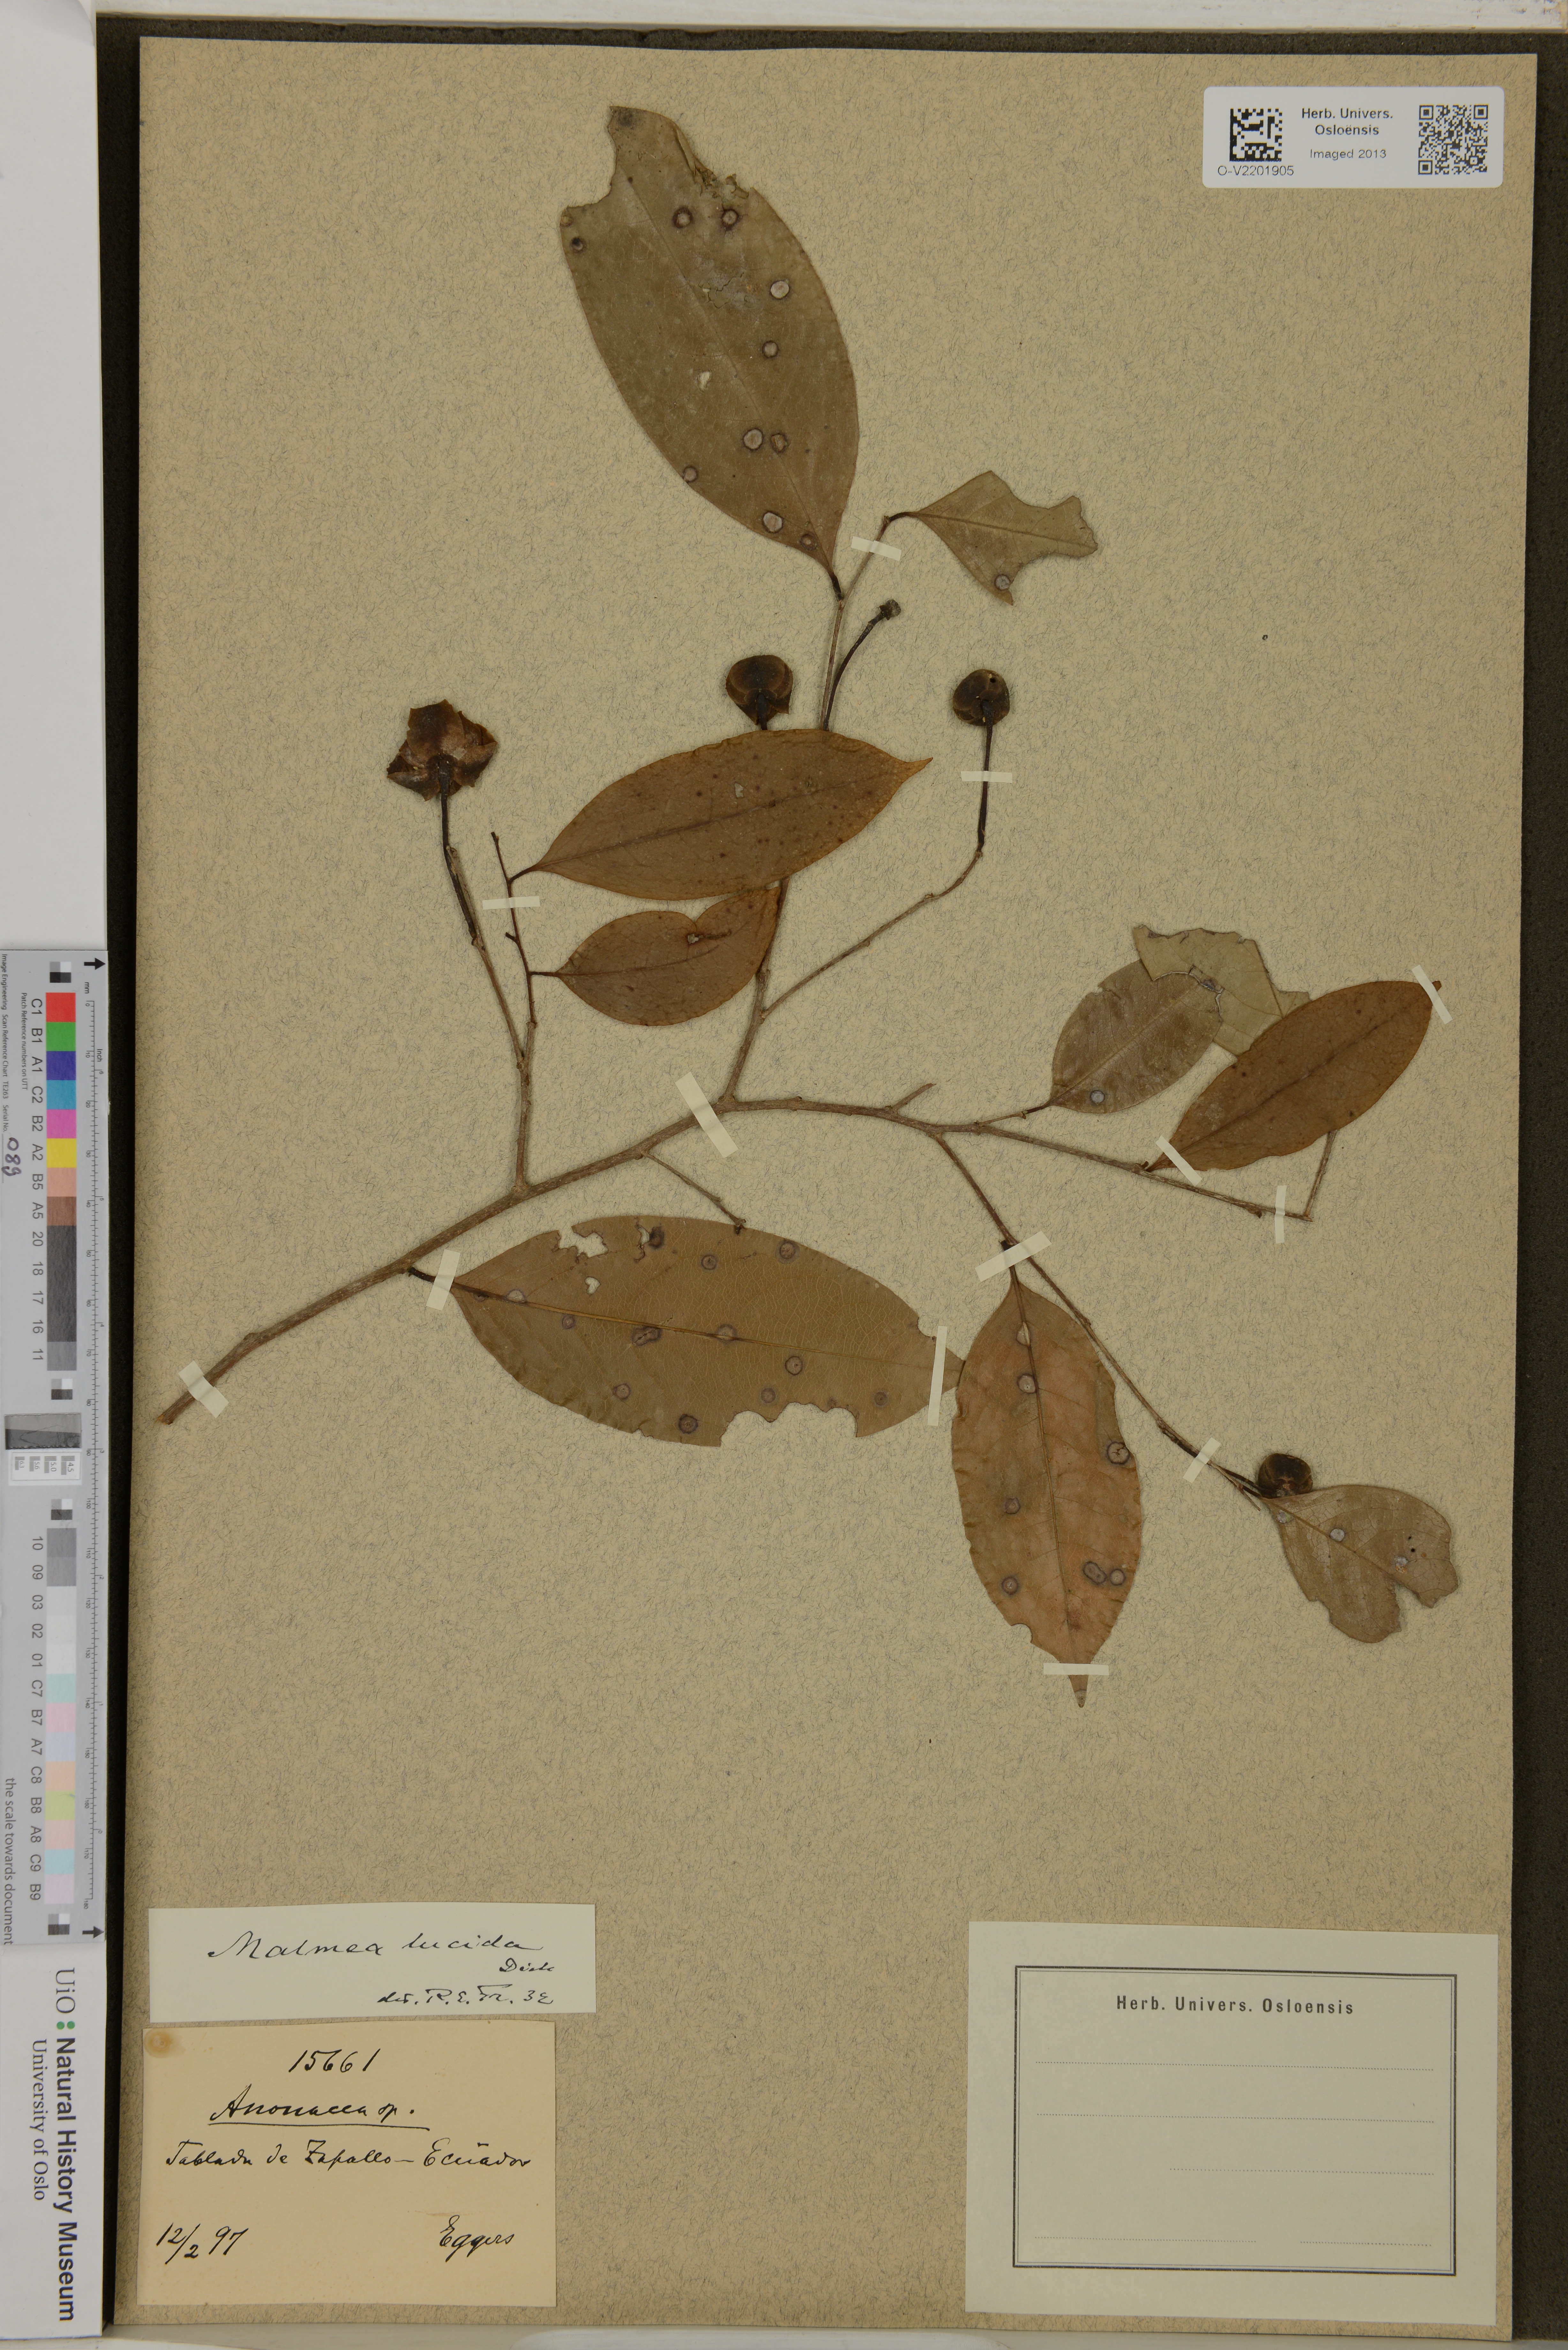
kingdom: Plantae
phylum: Tracheophyta
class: Magnoliopsida
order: Magnoliales
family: Annonaceae
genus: Klarobelia
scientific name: Klarobelia lucida
